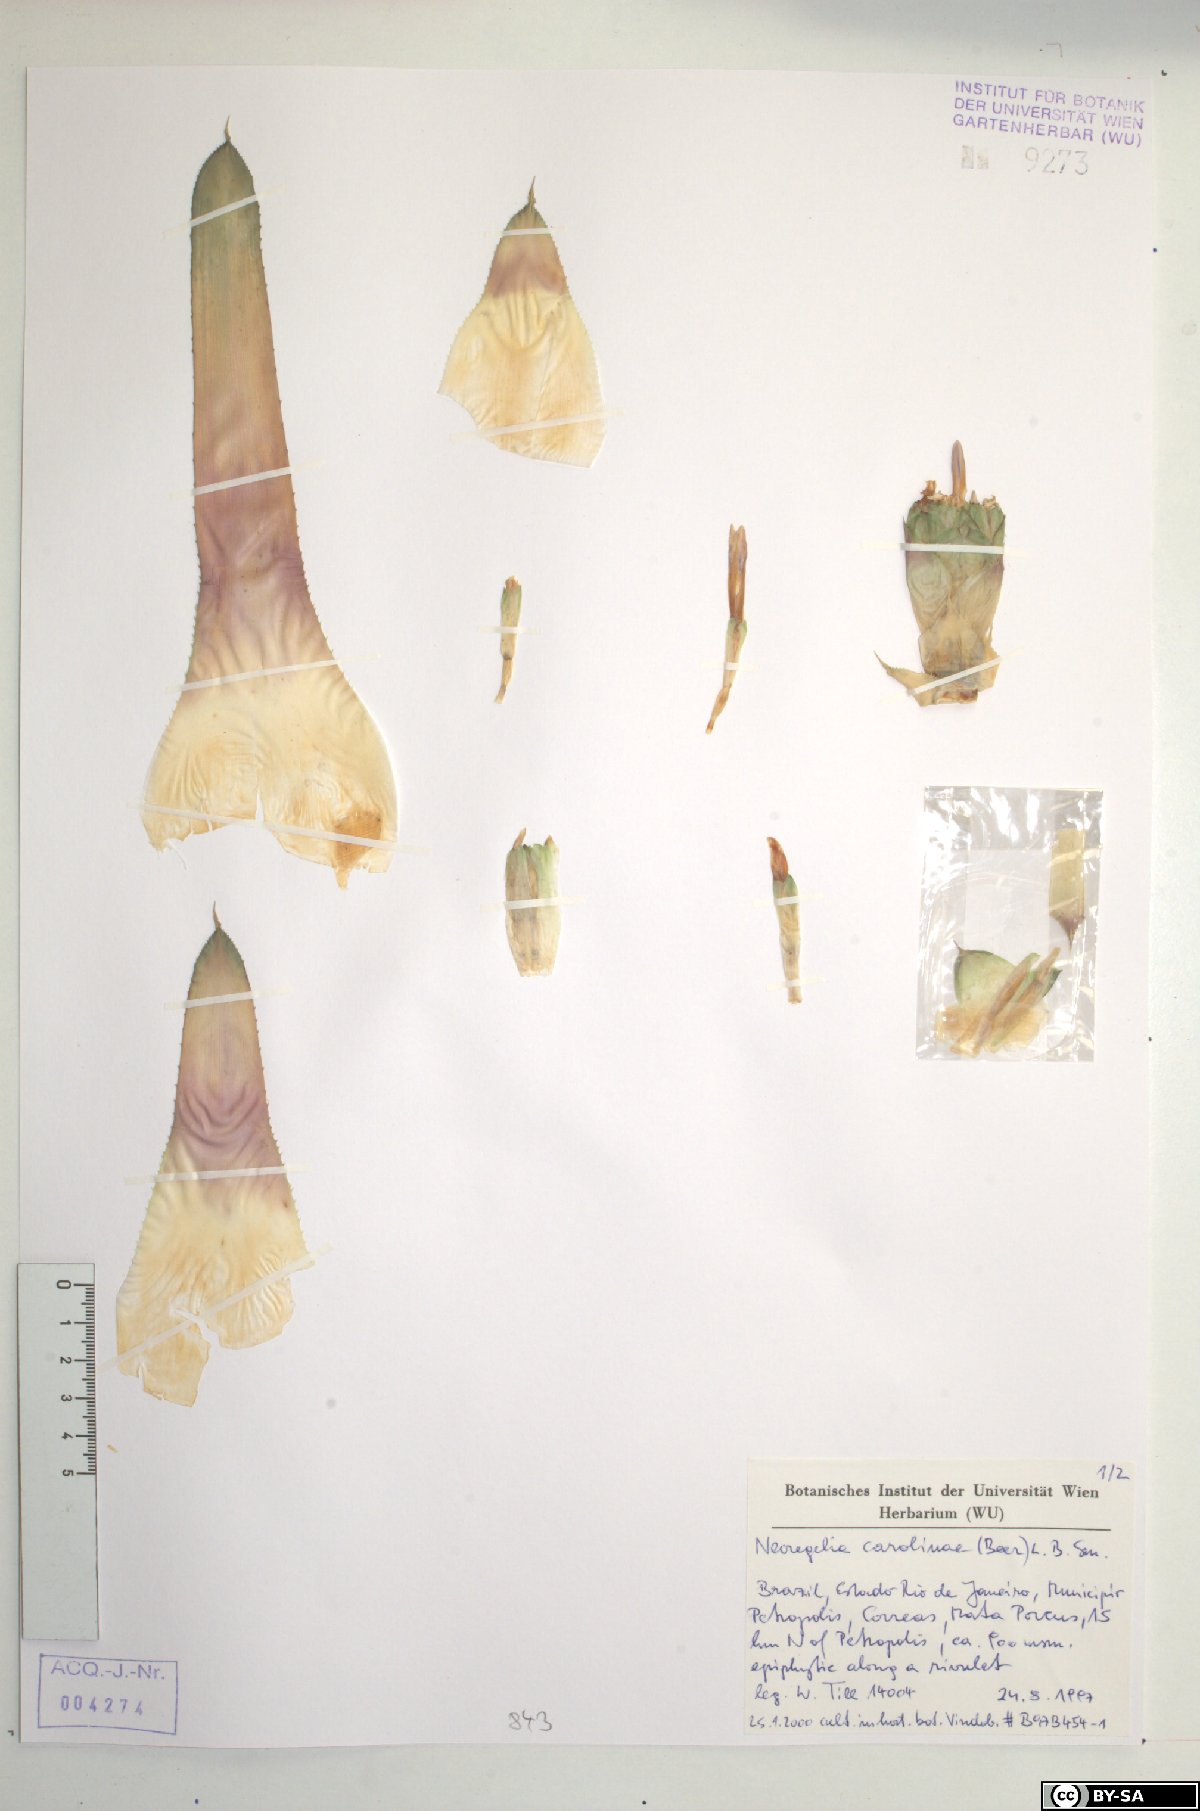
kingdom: Plantae
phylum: Tracheophyta
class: Liliopsida
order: Poales
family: Bromeliaceae
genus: Neoregelia
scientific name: Neoregelia carolinae
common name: Blushing bromeliad
